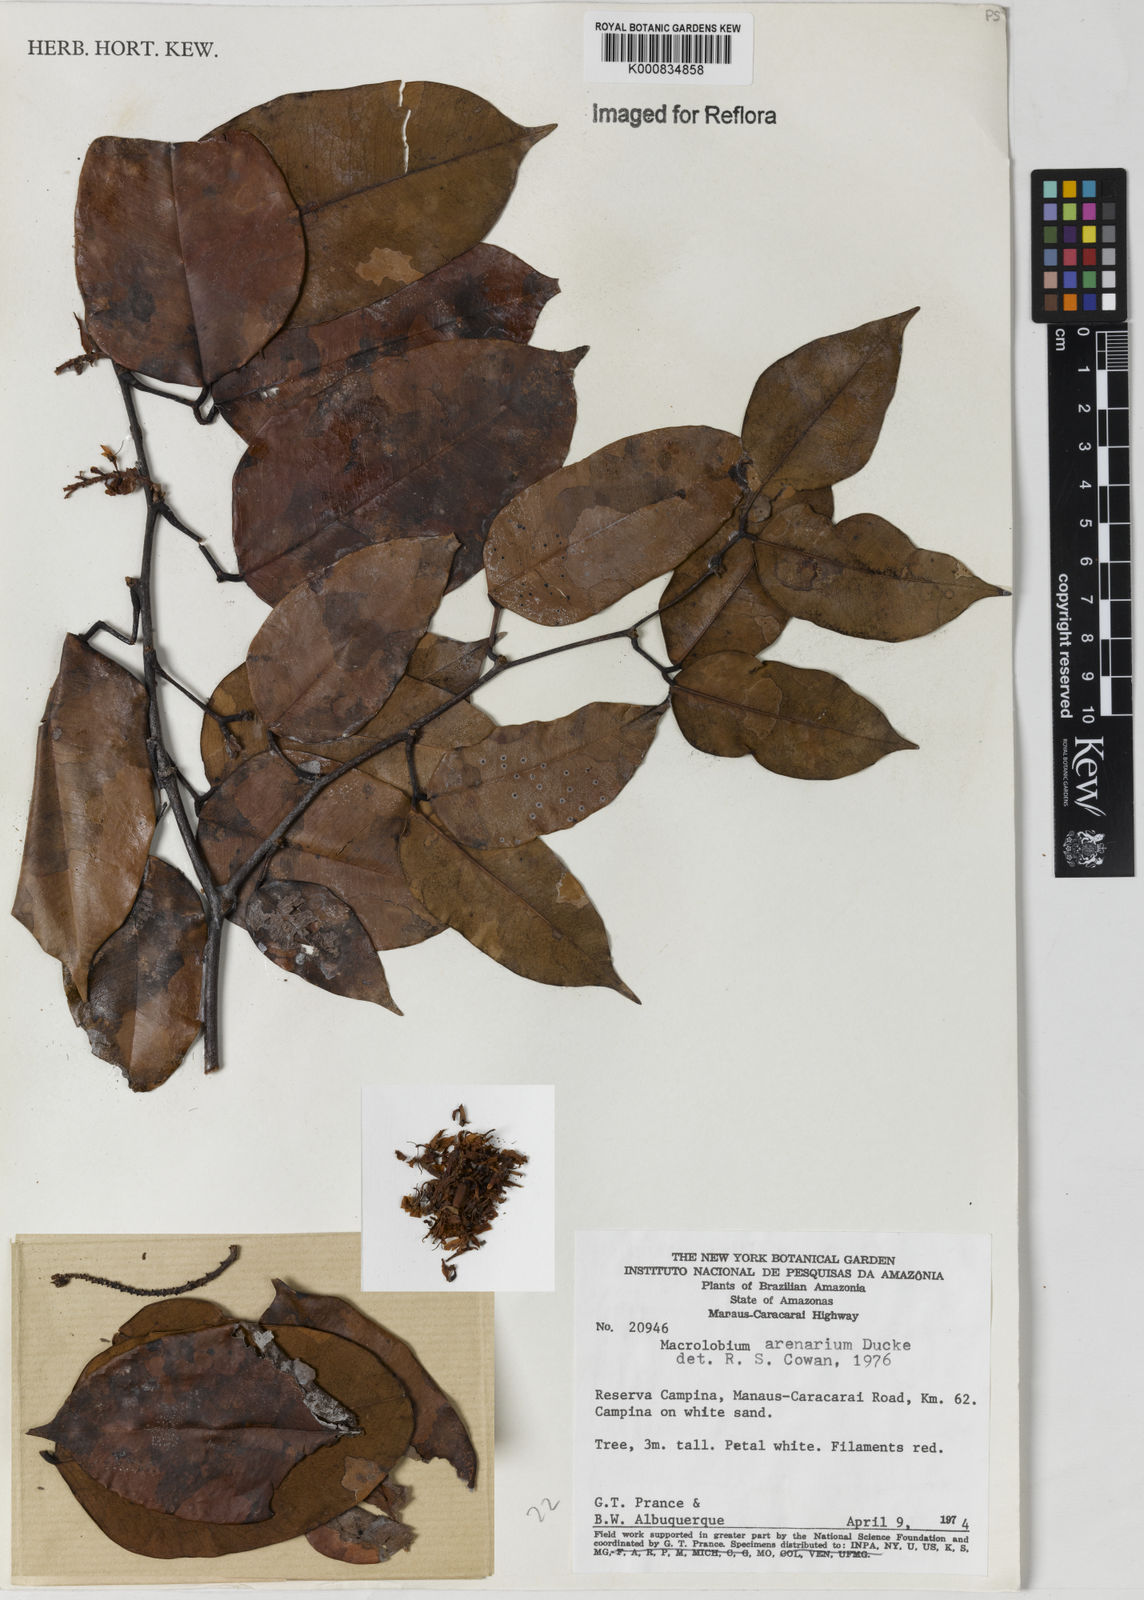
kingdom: Plantae
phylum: Tracheophyta
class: Magnoliopsida
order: Fabales
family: Fabaceae
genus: Macrolobium
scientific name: Macrolobium arenarium
